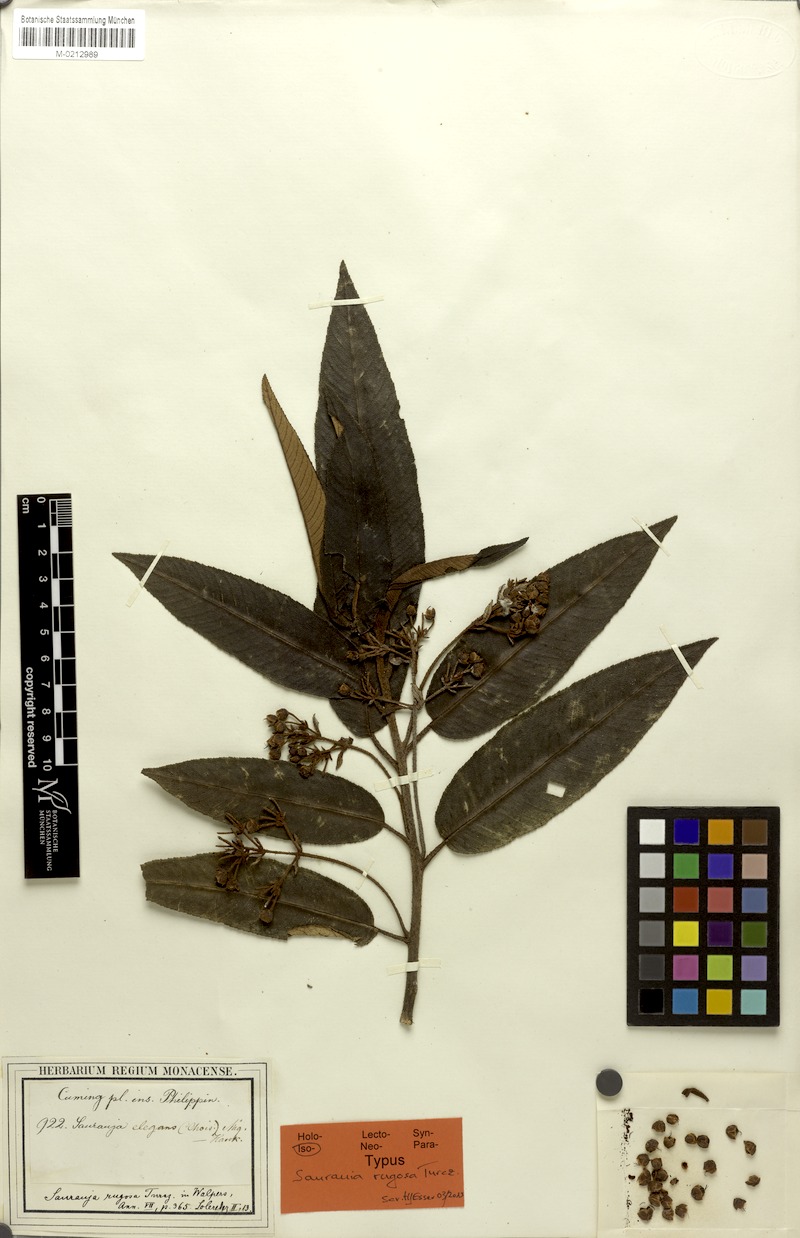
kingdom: Plantae
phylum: Tracheophyta
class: Magnoliopsida
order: Ericales
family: Actinidiaceae
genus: Saurauia
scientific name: Saurauia elegans
